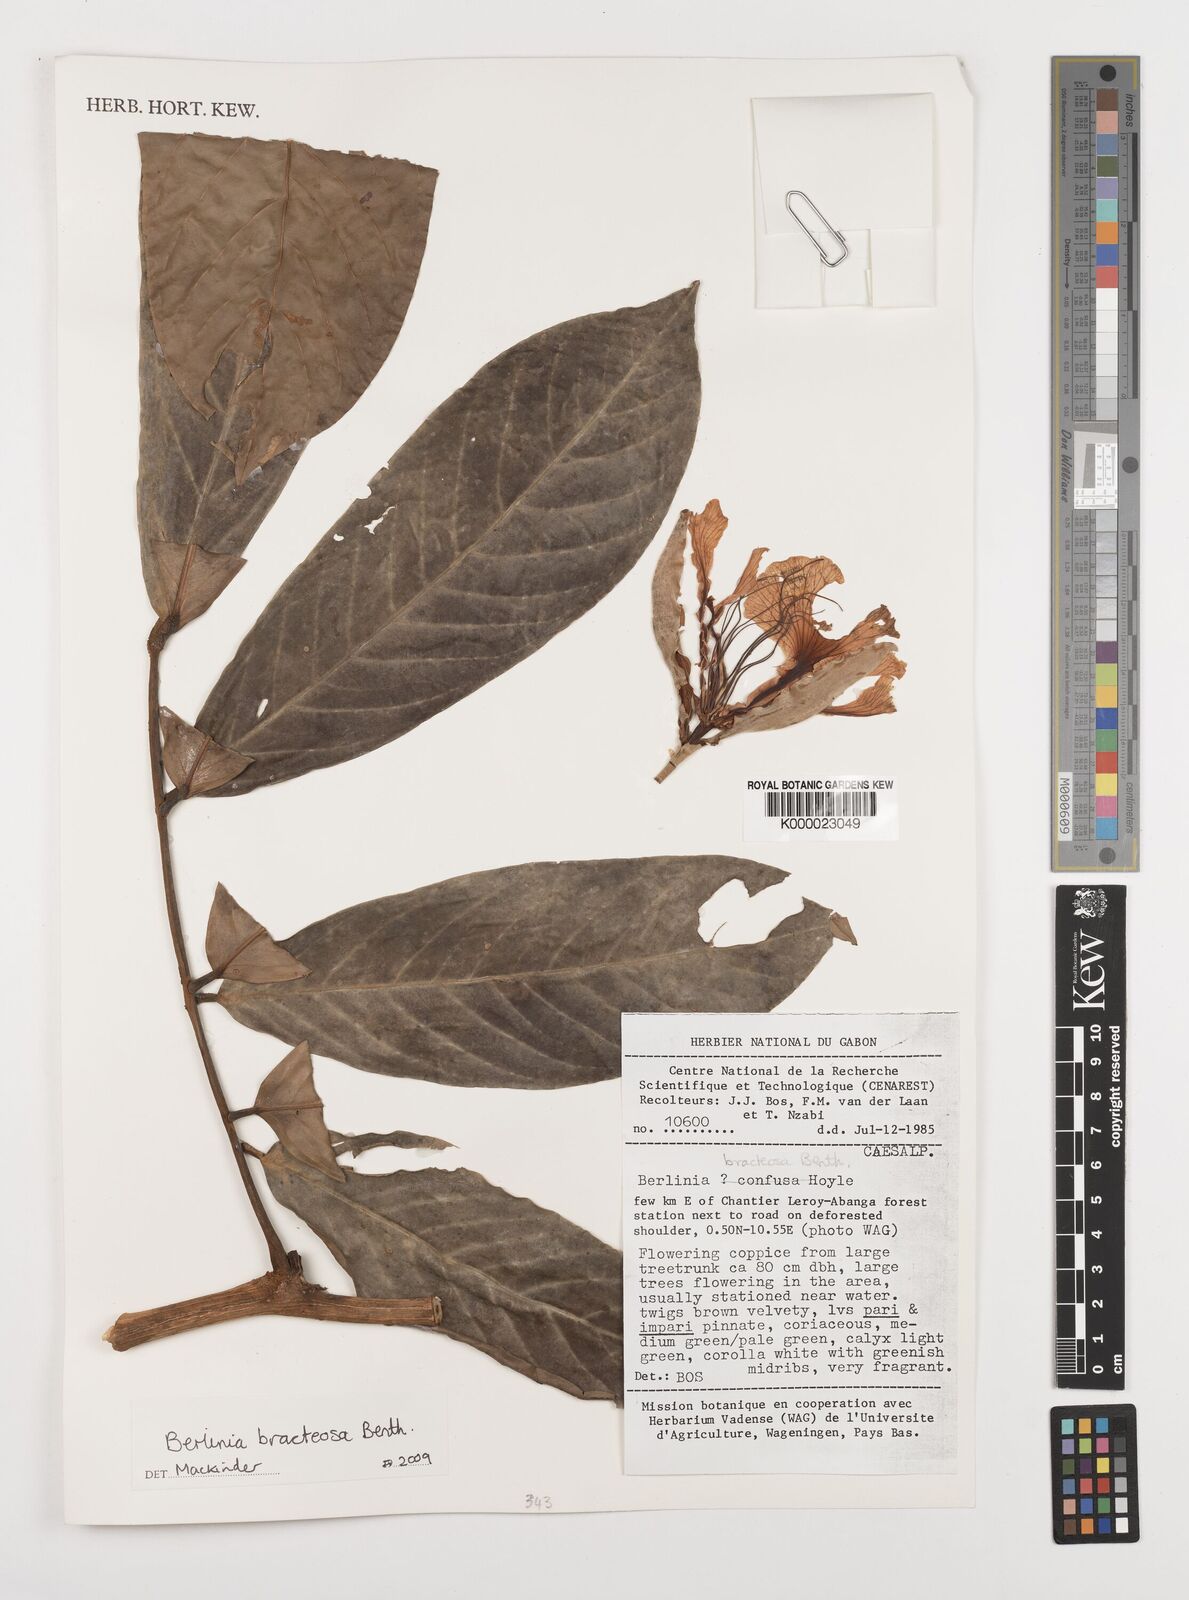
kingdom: Plantae
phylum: Tracheophyta
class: Magnoliopsida
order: Fabales
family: Fabaceae
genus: Berlinia
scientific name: Berlinia bracteosa
